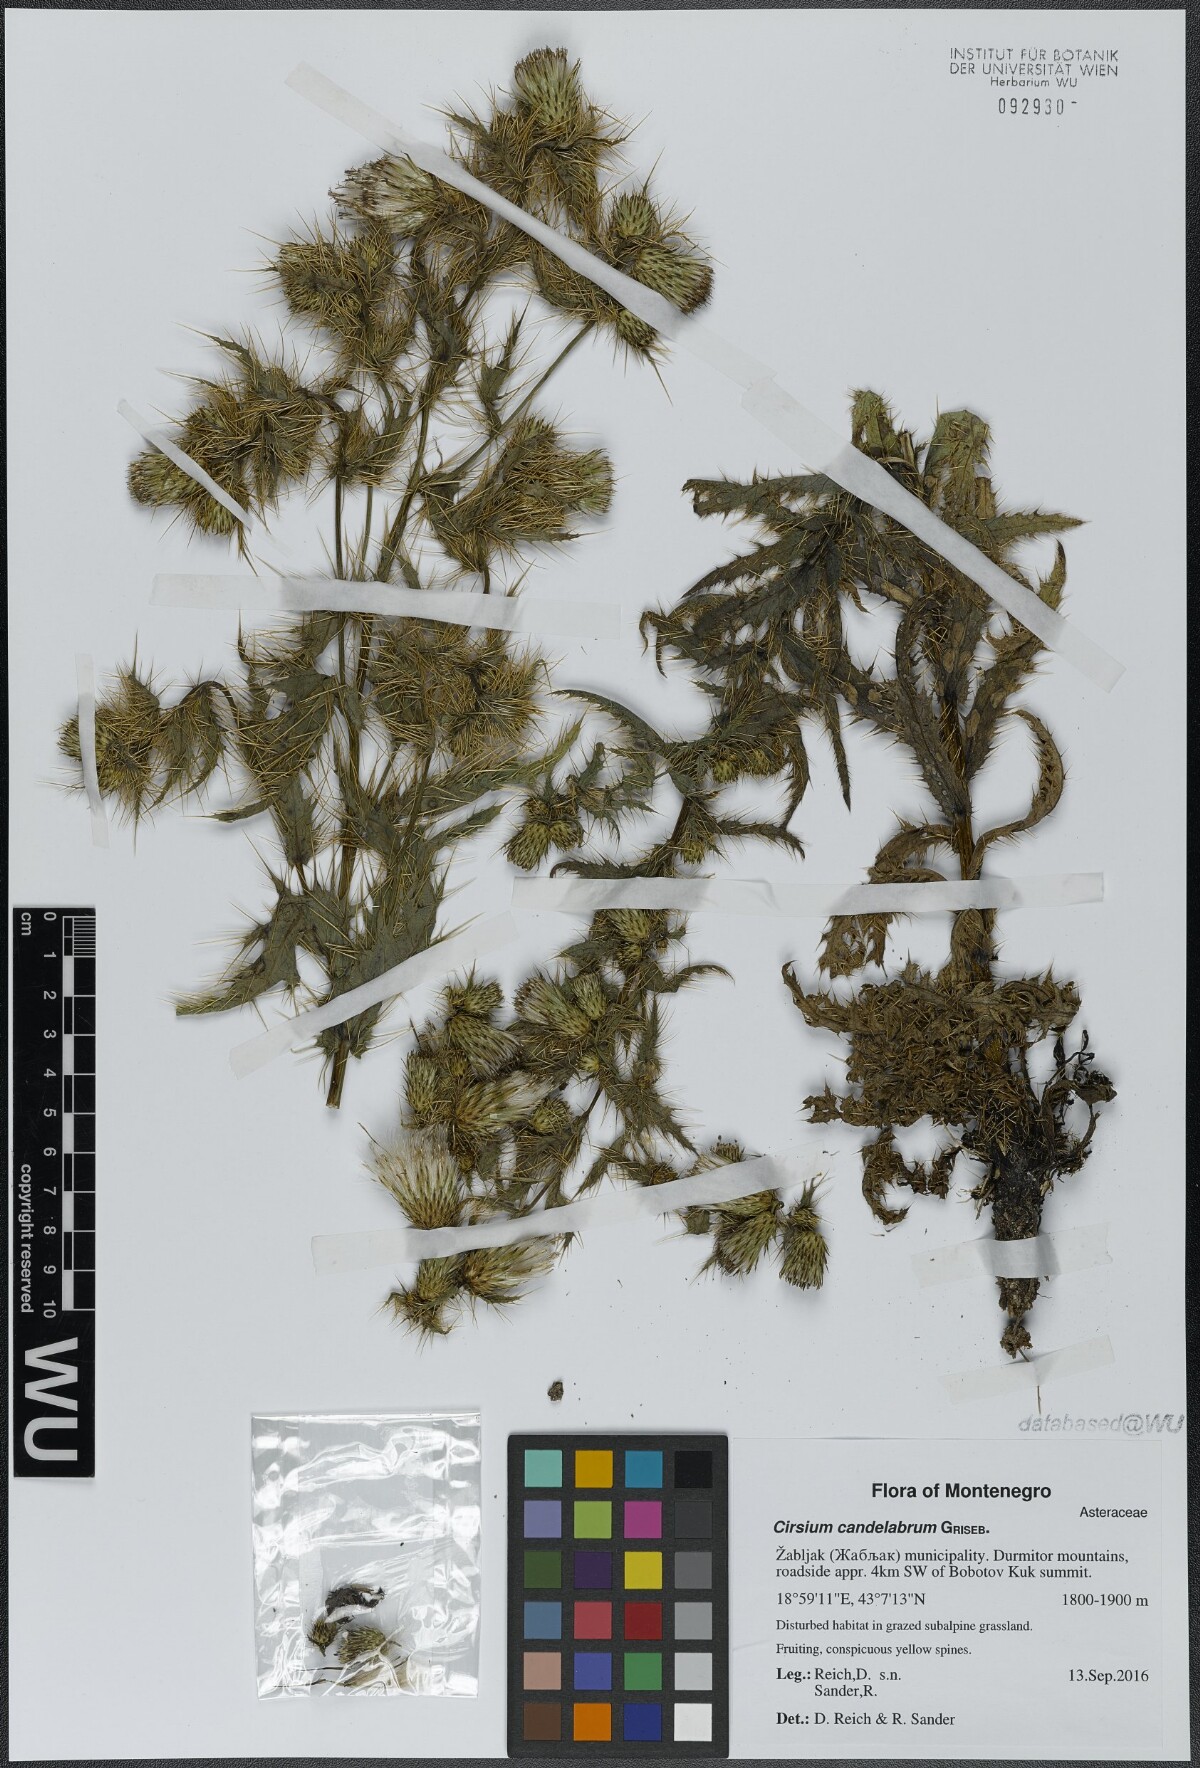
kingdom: Plantae
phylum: Tracheophyta
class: Magnoliopsida
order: Asterales
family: Asteraceae
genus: Cirsium
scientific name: Cirsium candelabrum
